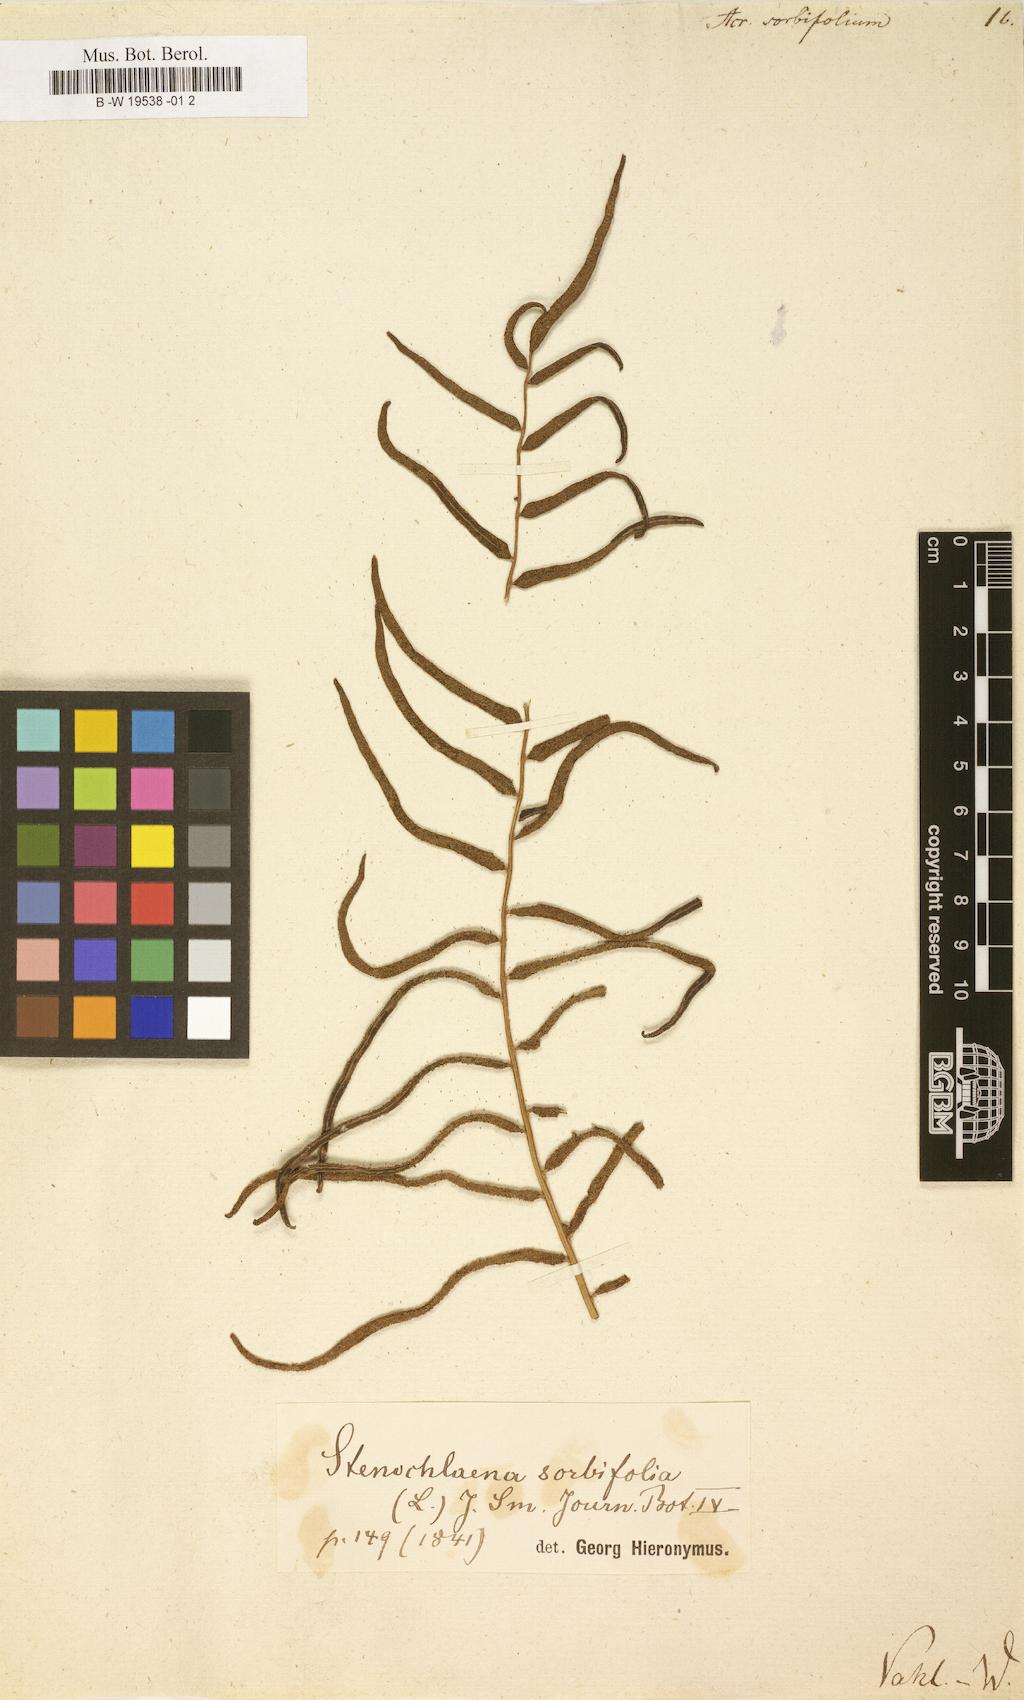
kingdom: Plantae
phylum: Tracheophyta
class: Polypodiopsida
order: Polypodiales
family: Pteridaceae
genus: Acrostichum
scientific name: Acrostichum
